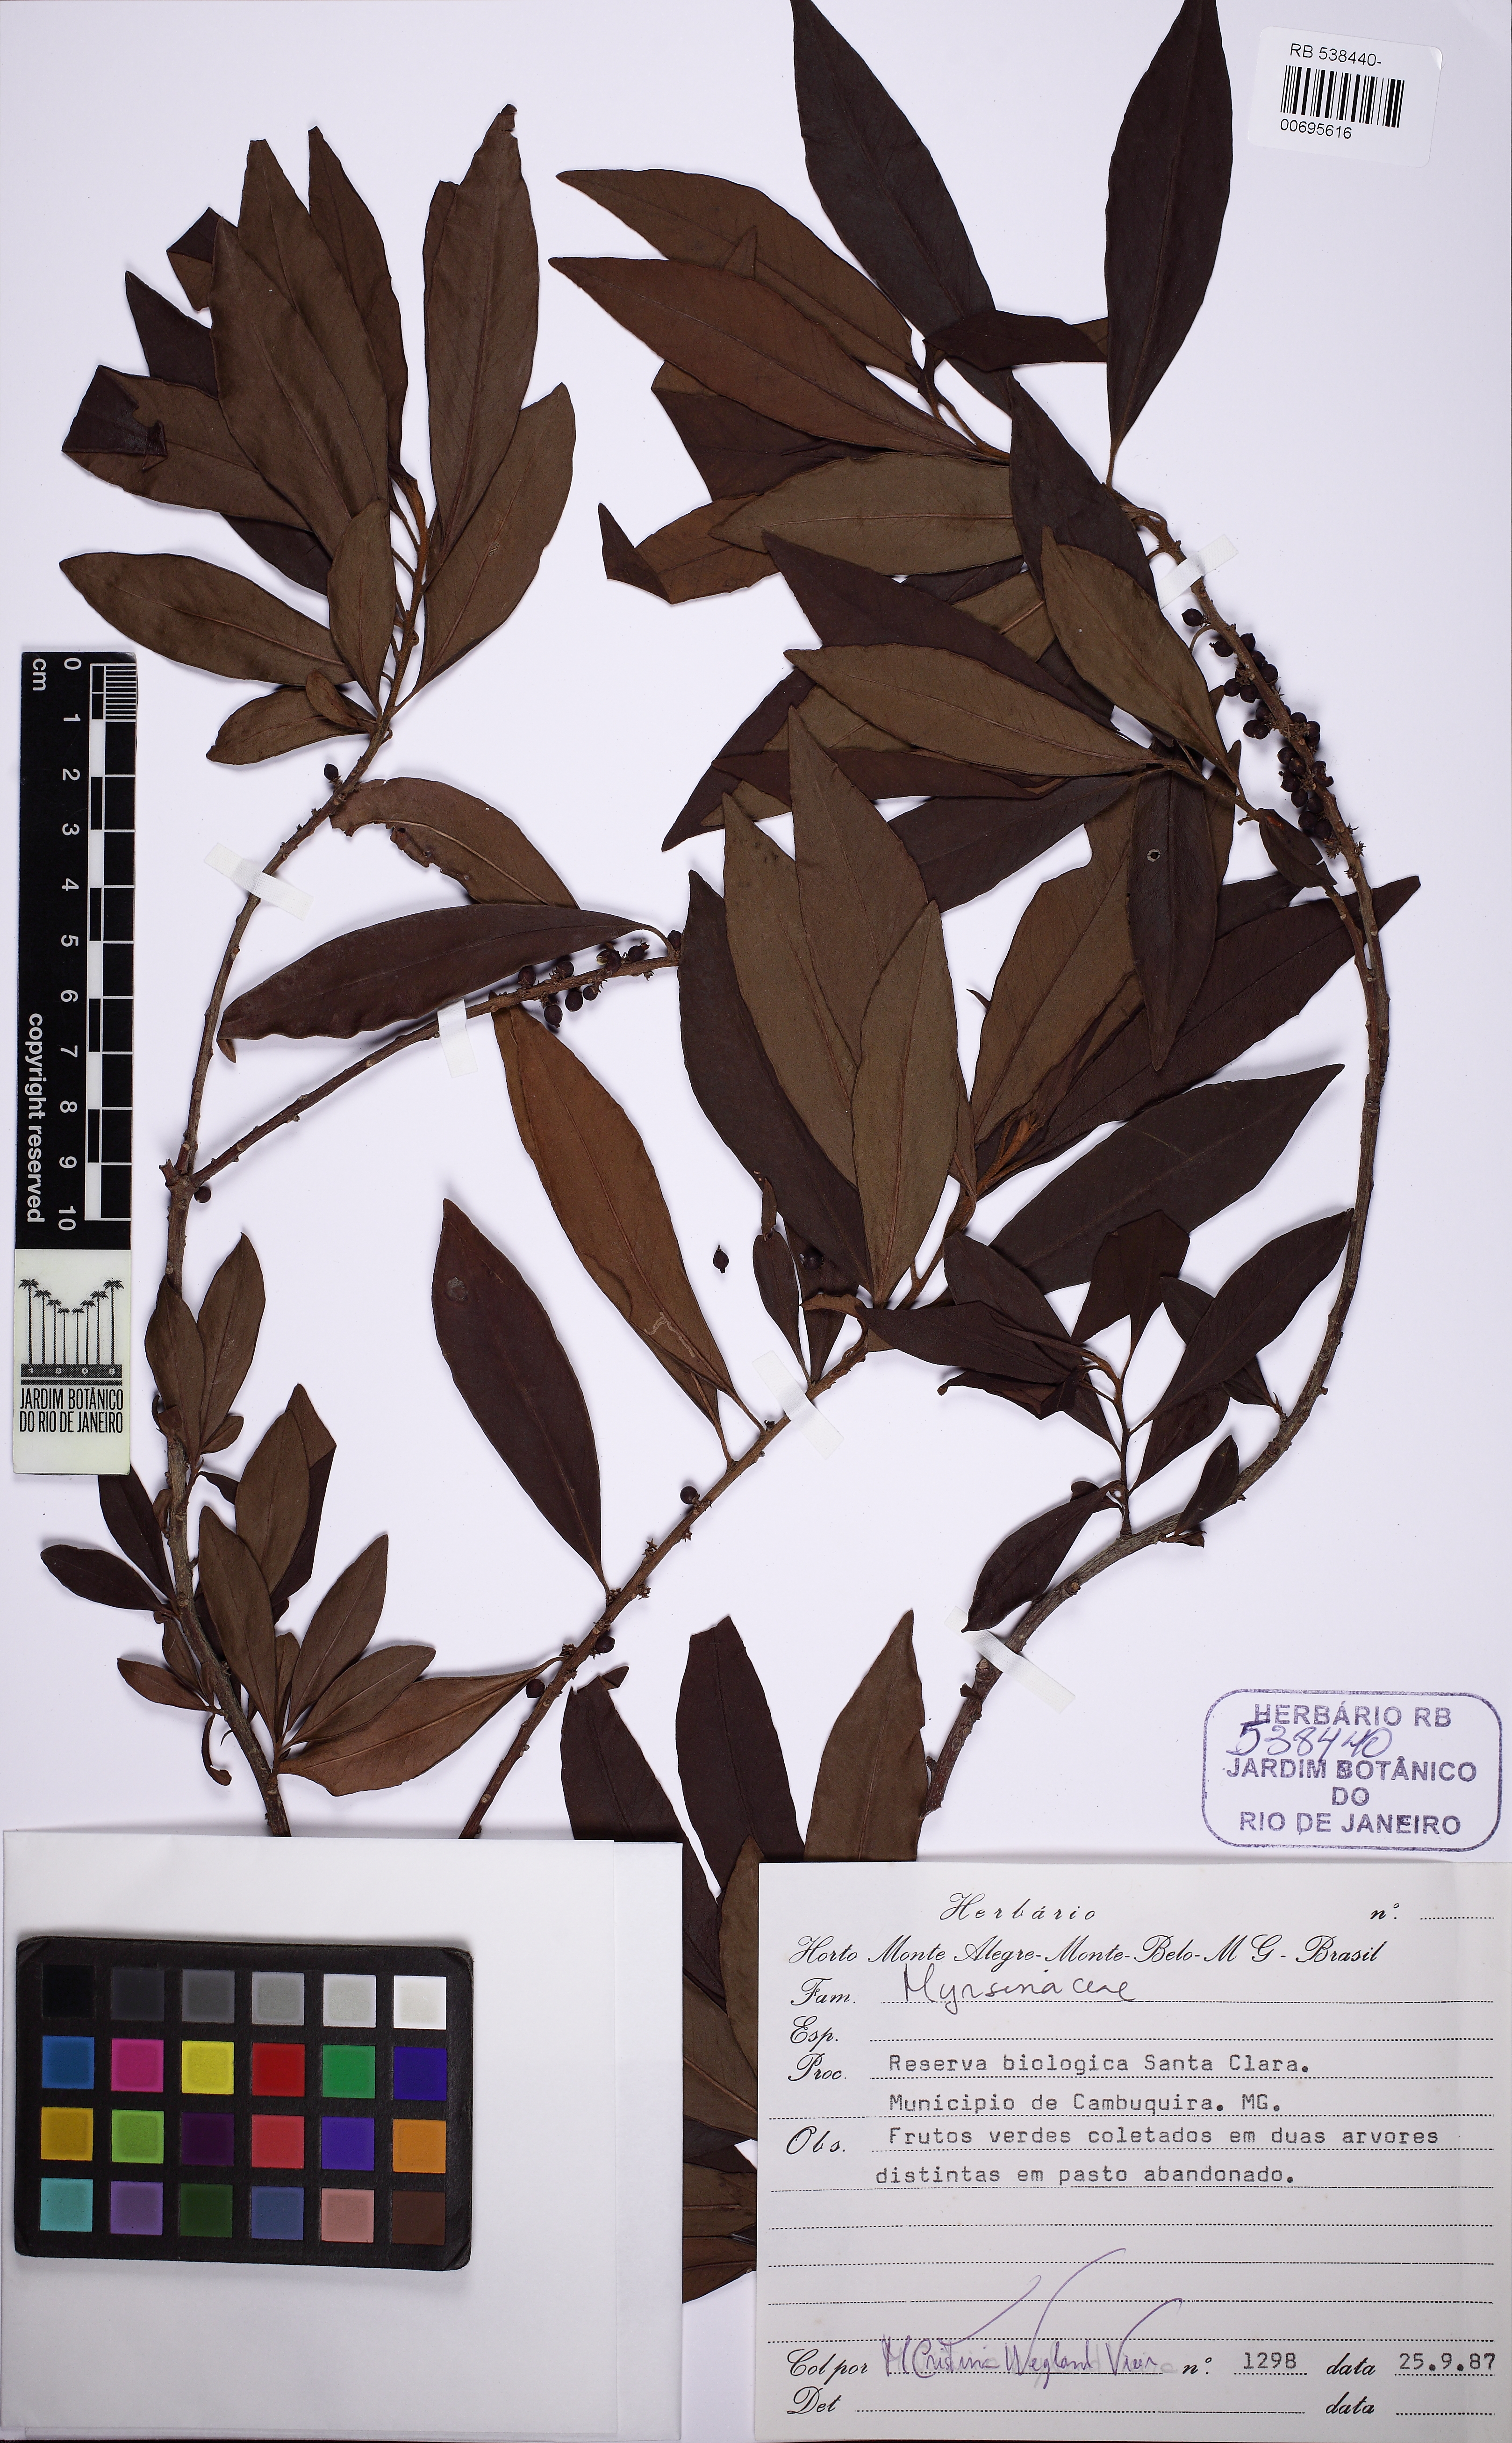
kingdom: Plantae
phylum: Tracheophyta
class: Magnoliopsida
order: Ericales
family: Primulaceae
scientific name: Primulaceae
